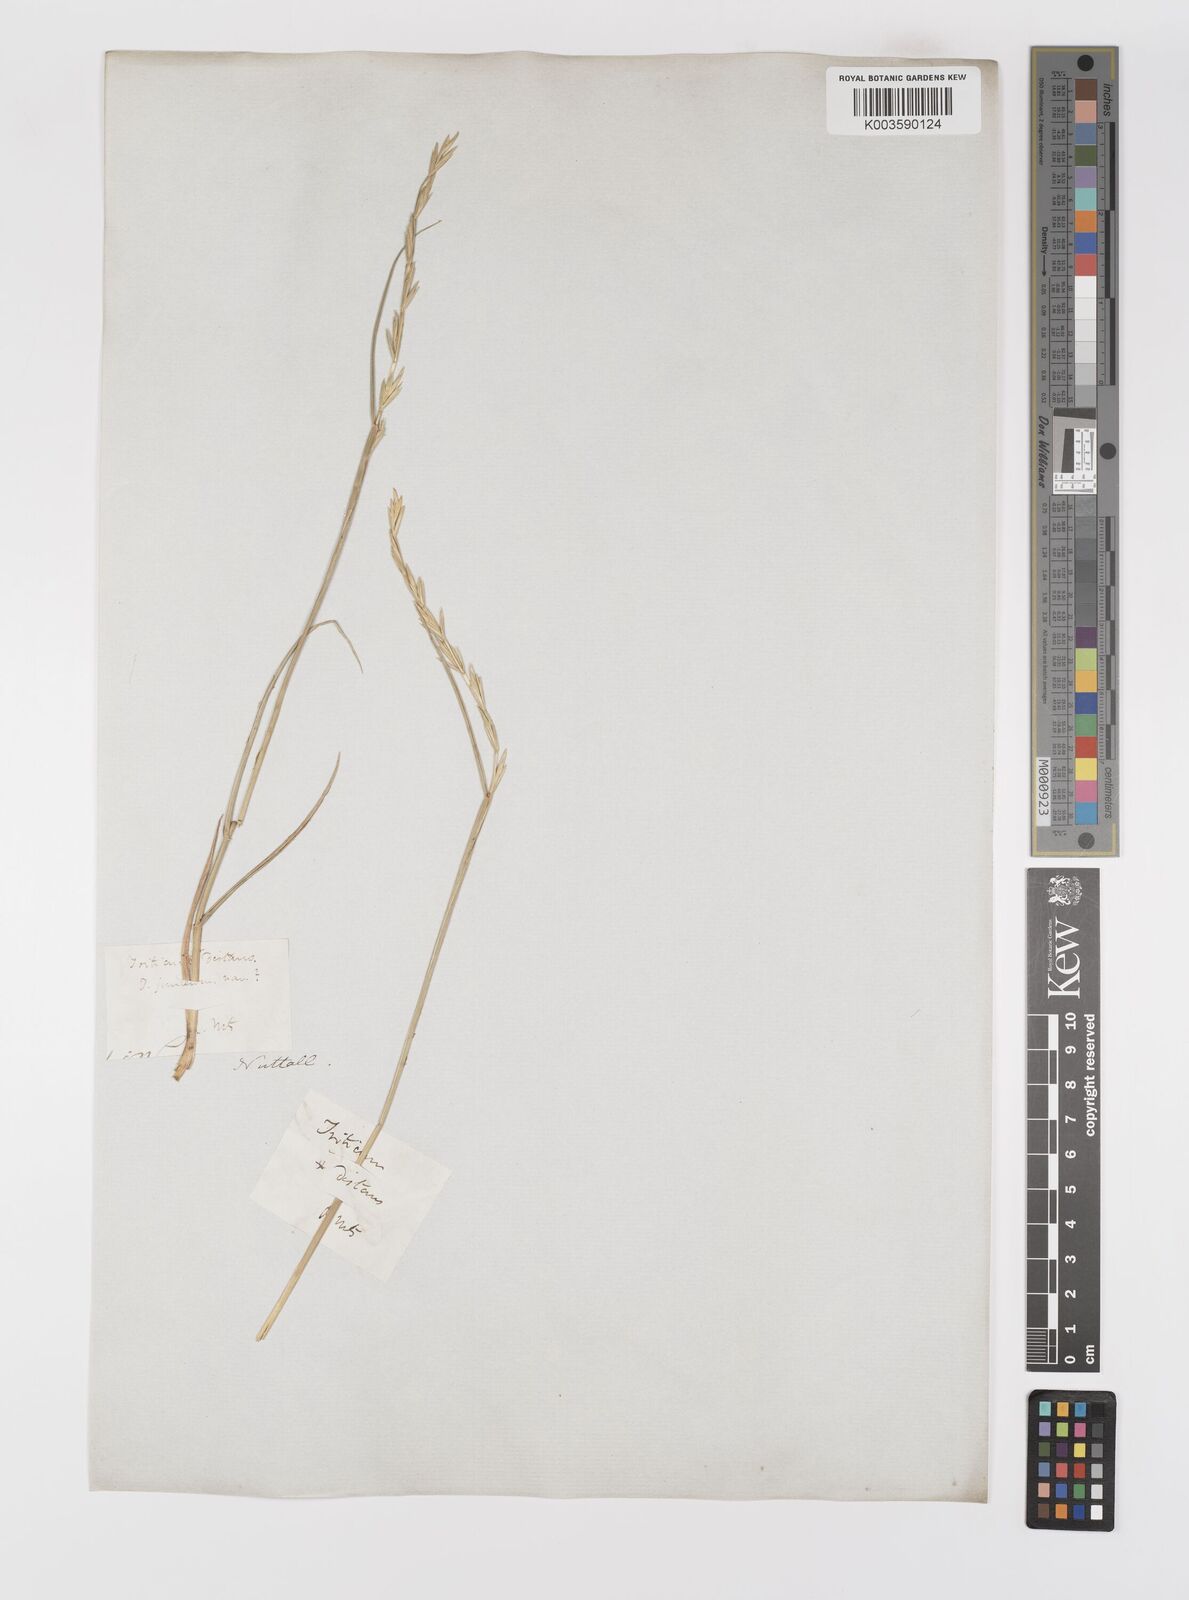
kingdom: Plantae
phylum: Tracheophyta
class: Liliopsida
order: Poales
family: Poaceae
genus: Elymus
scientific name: Elymus repens
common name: Quackgrass
